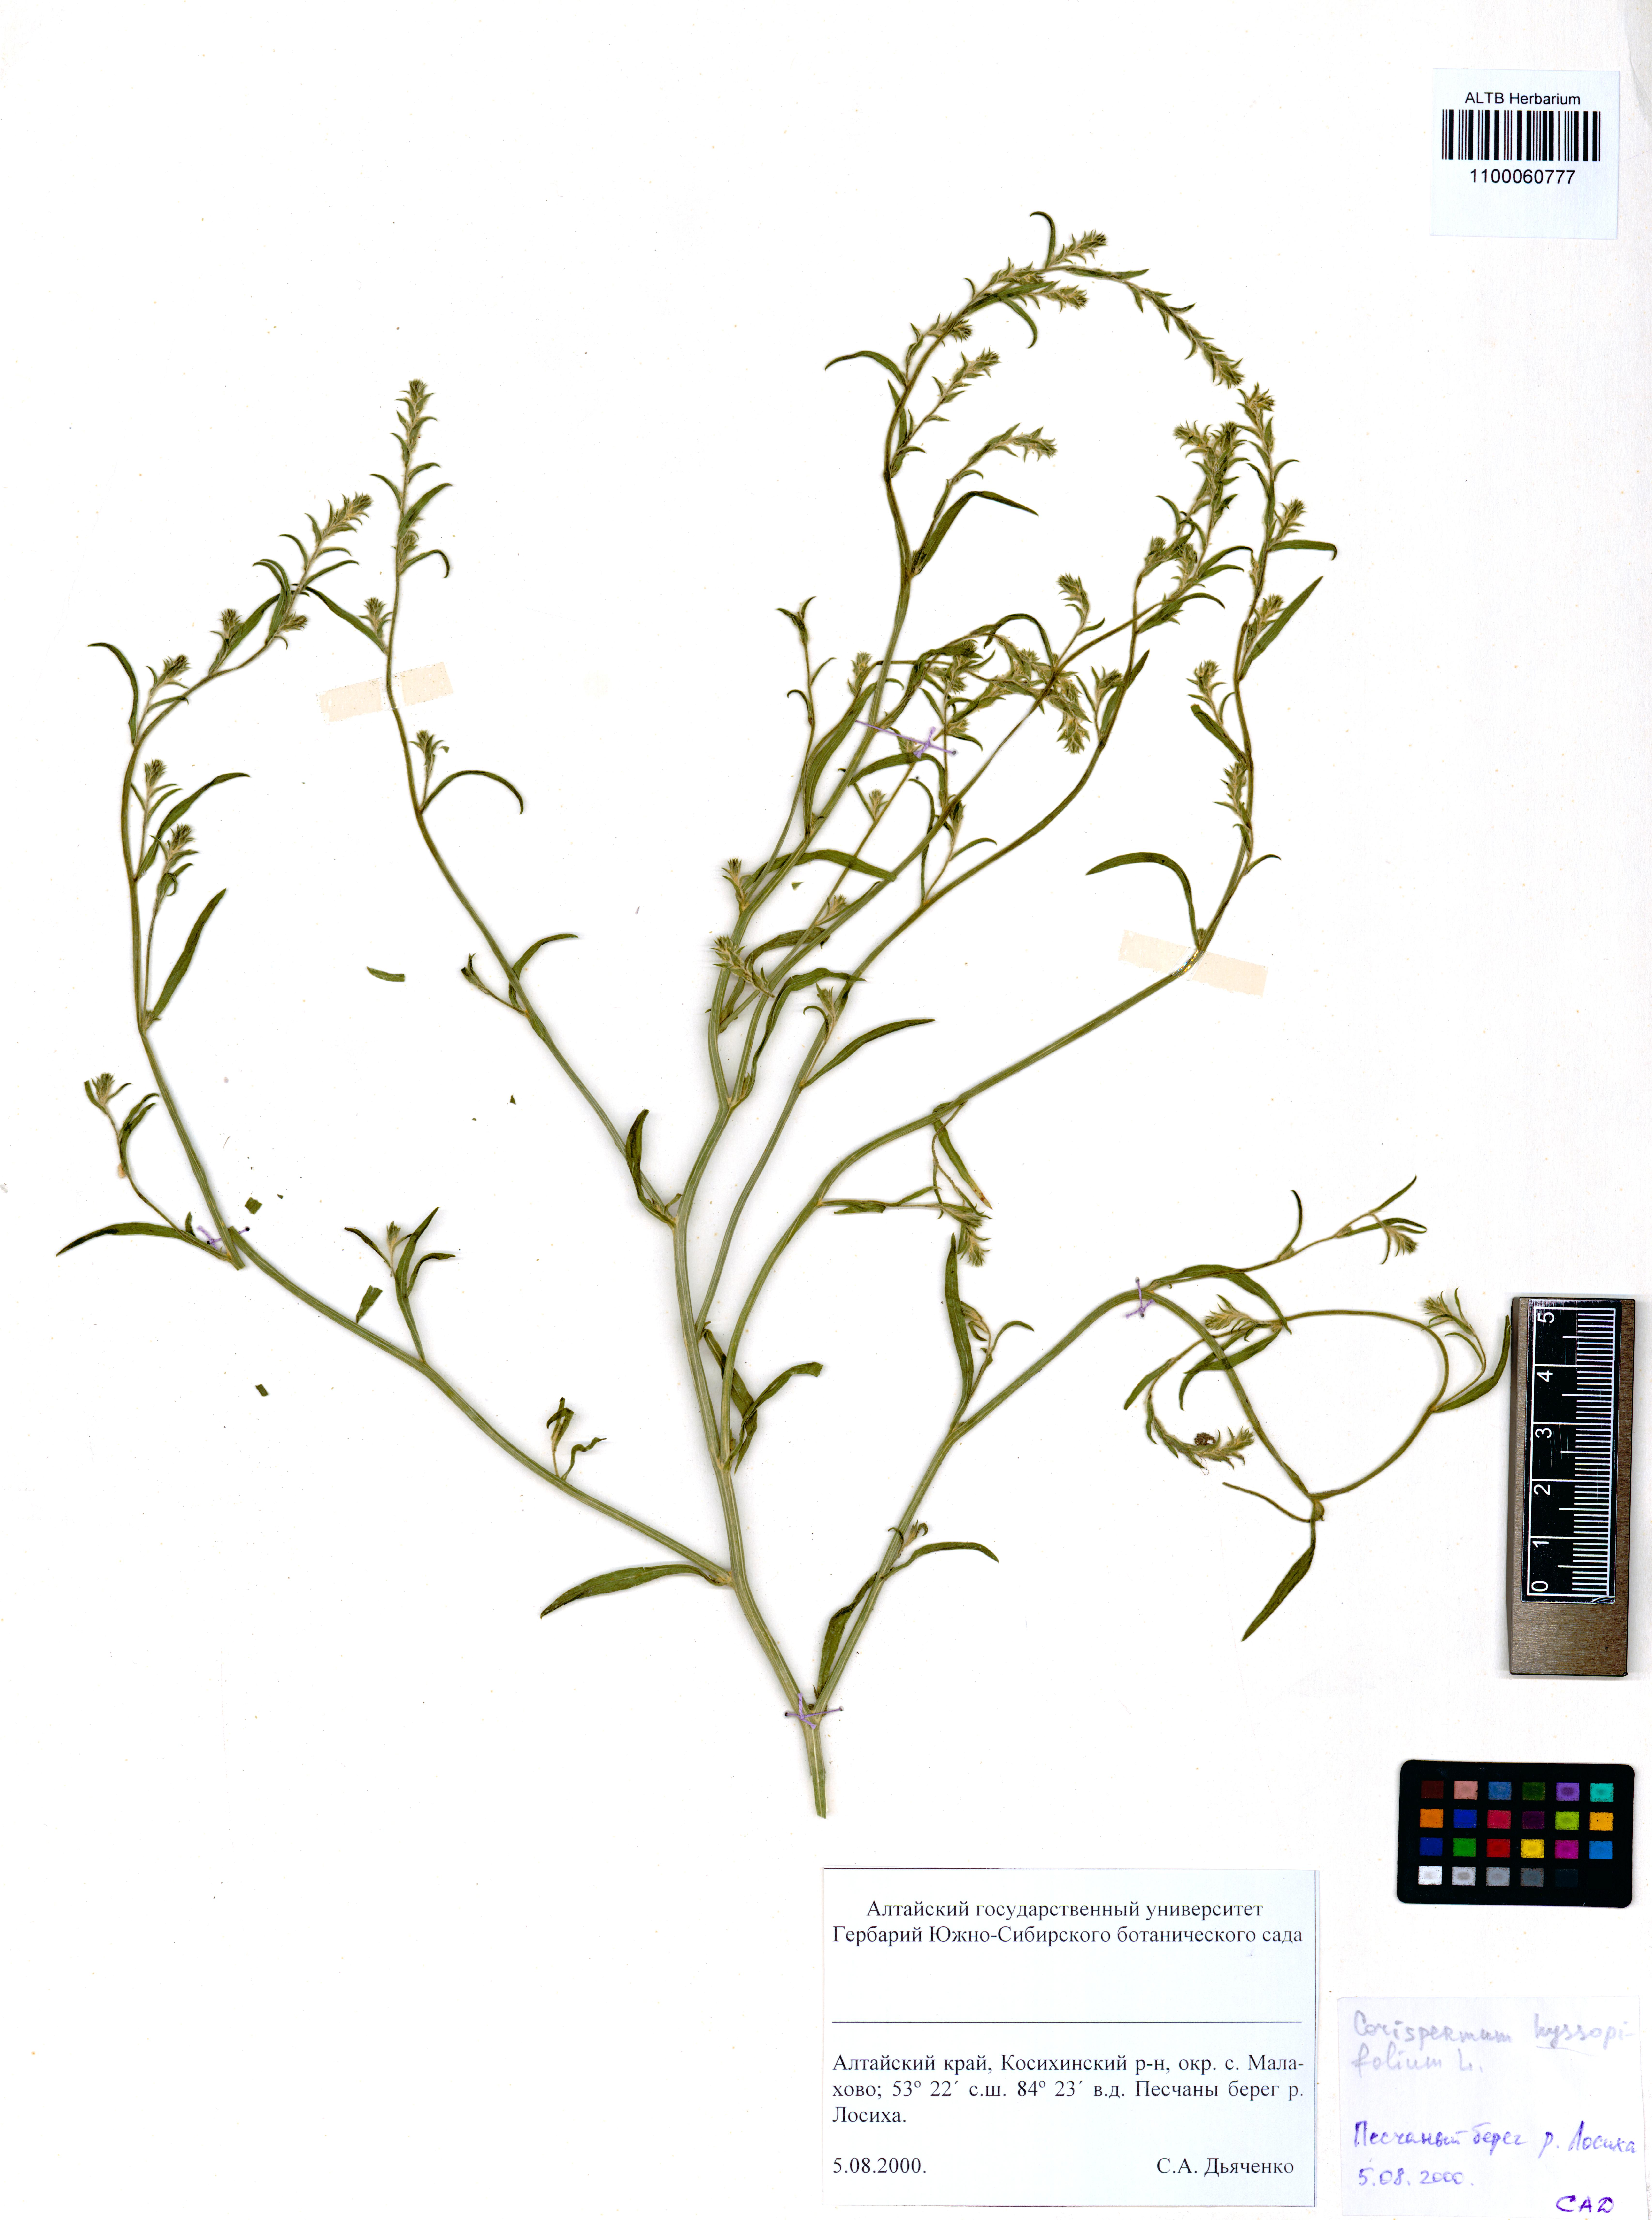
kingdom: Plantae
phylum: Tracheophyta
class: Magnoliopsida
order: Caryophyllales
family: Amaranthaceae
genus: Corispermum
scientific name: Corispermum hyssopifolium
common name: Bugseed
